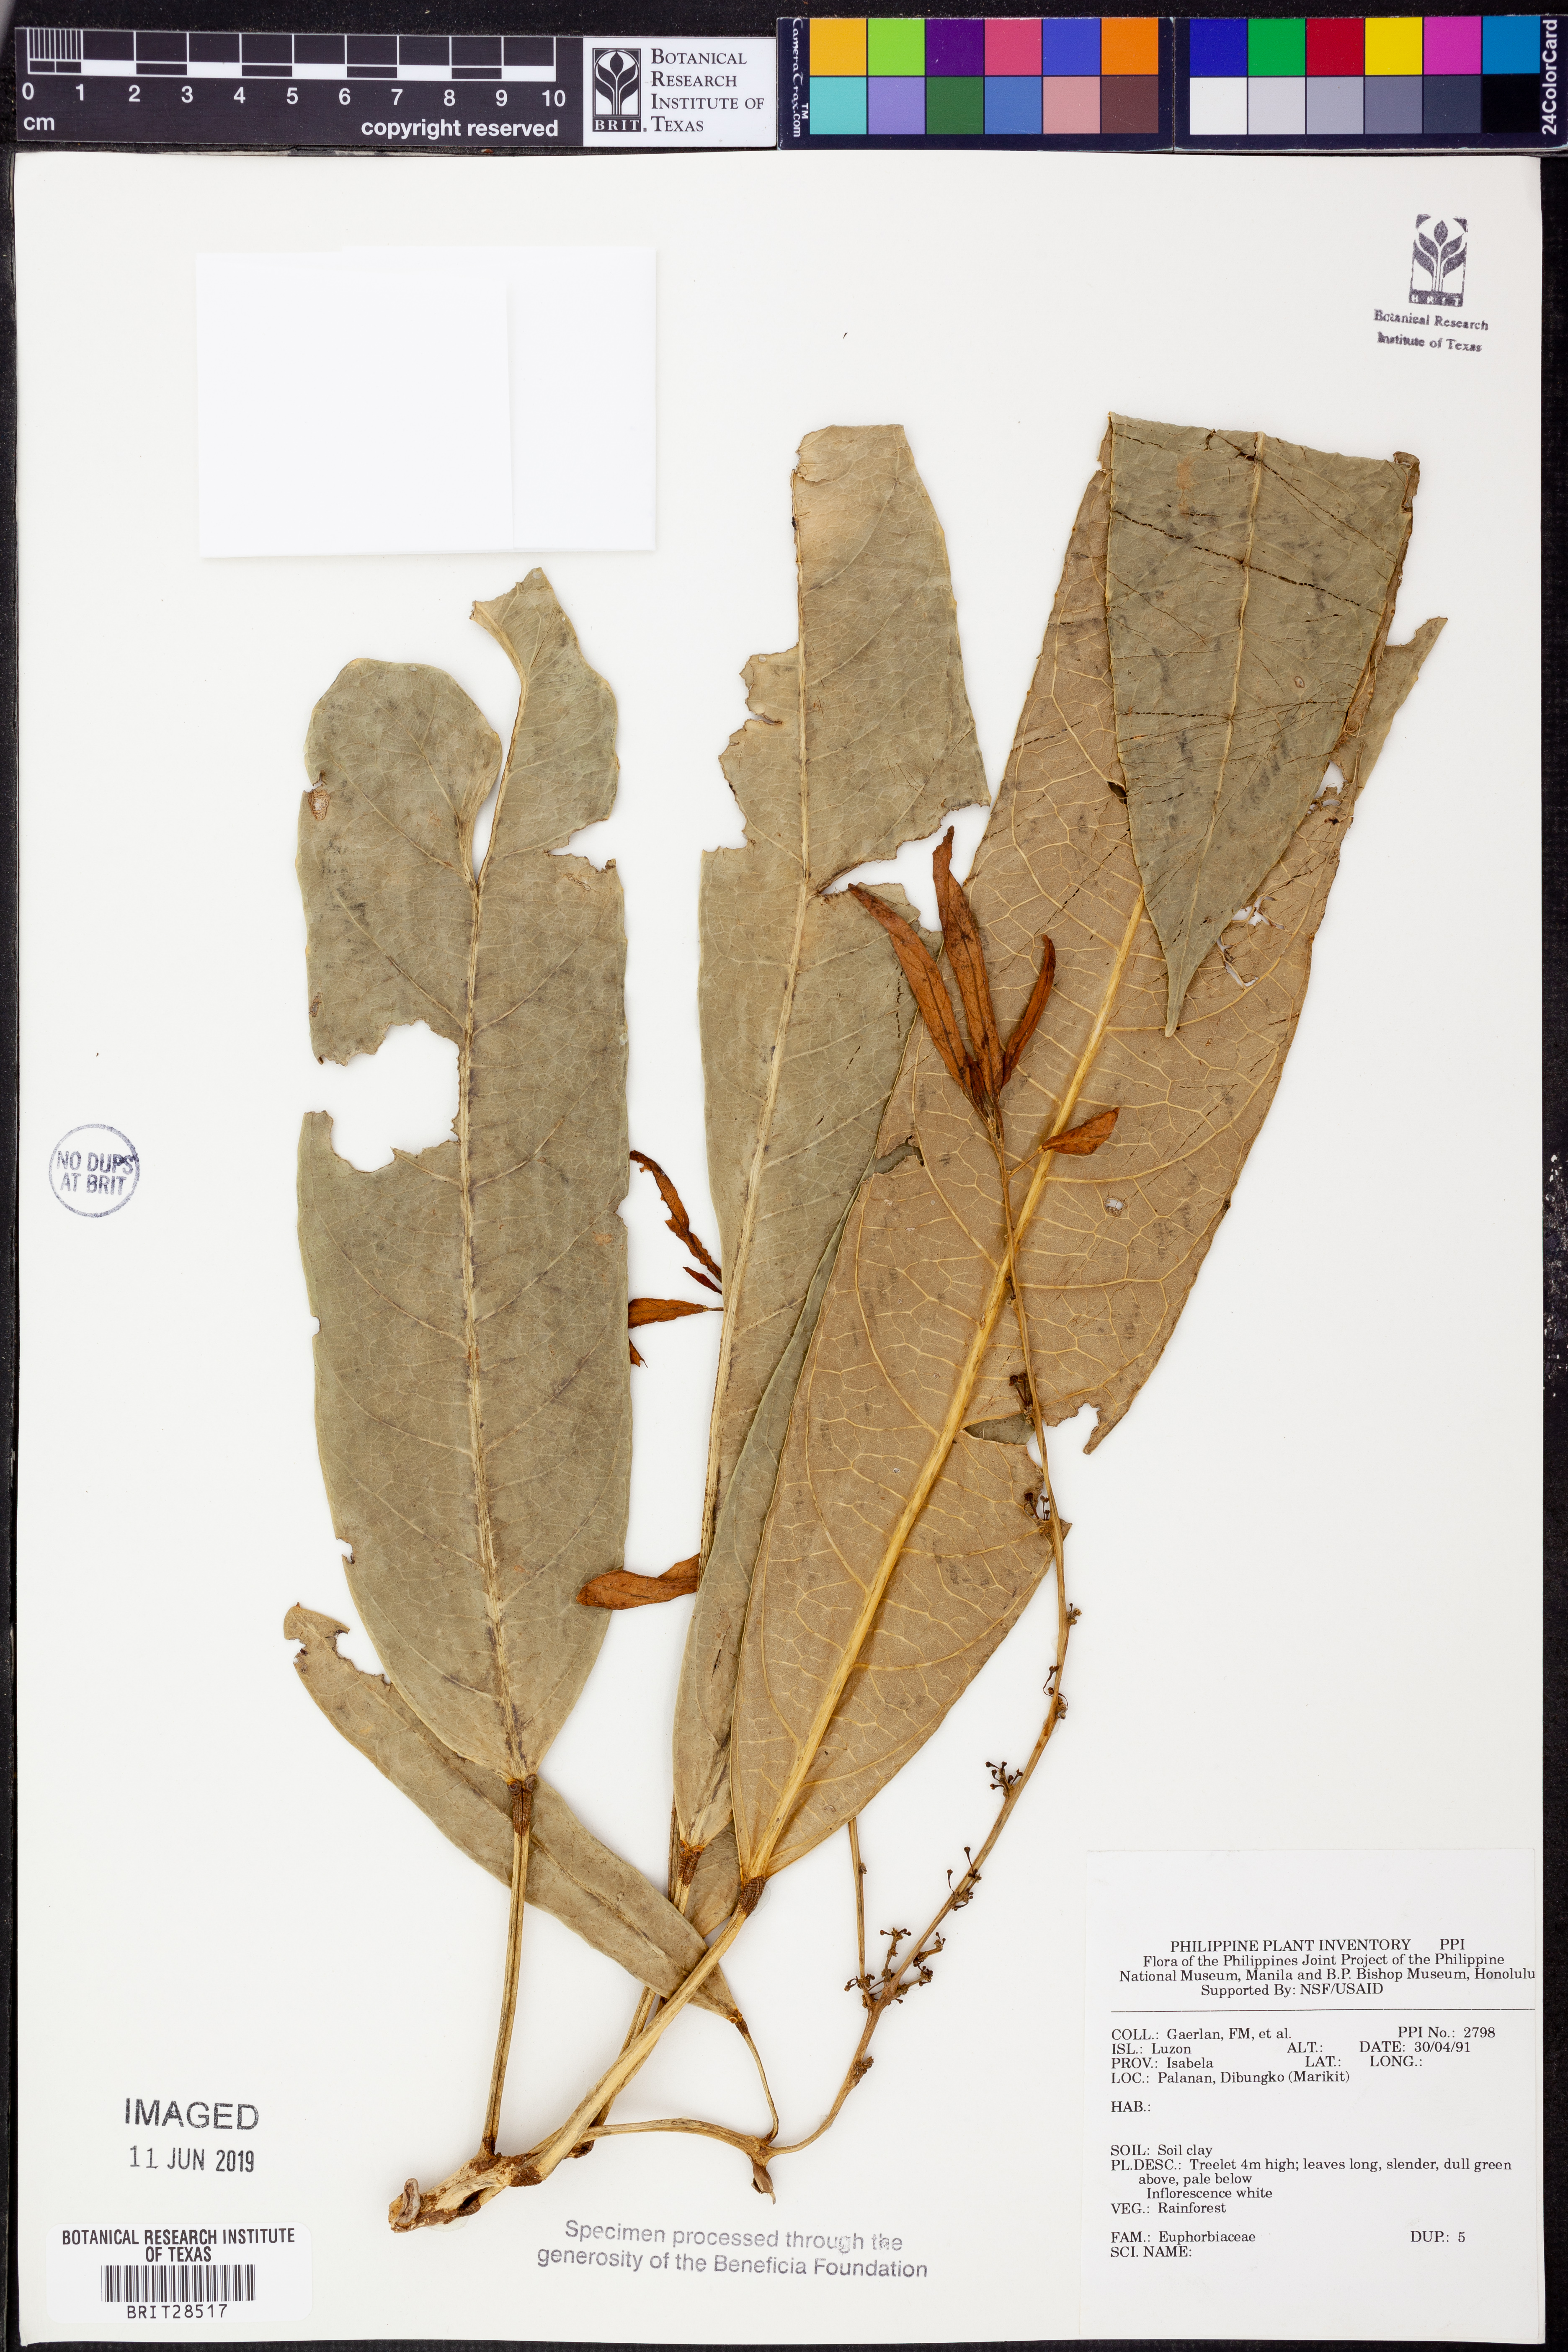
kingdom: Plantae
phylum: Tracheophyta
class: Magnoliopsida
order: Malpighiales
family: Euphorbiaceae
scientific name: Euphorbiaceae
